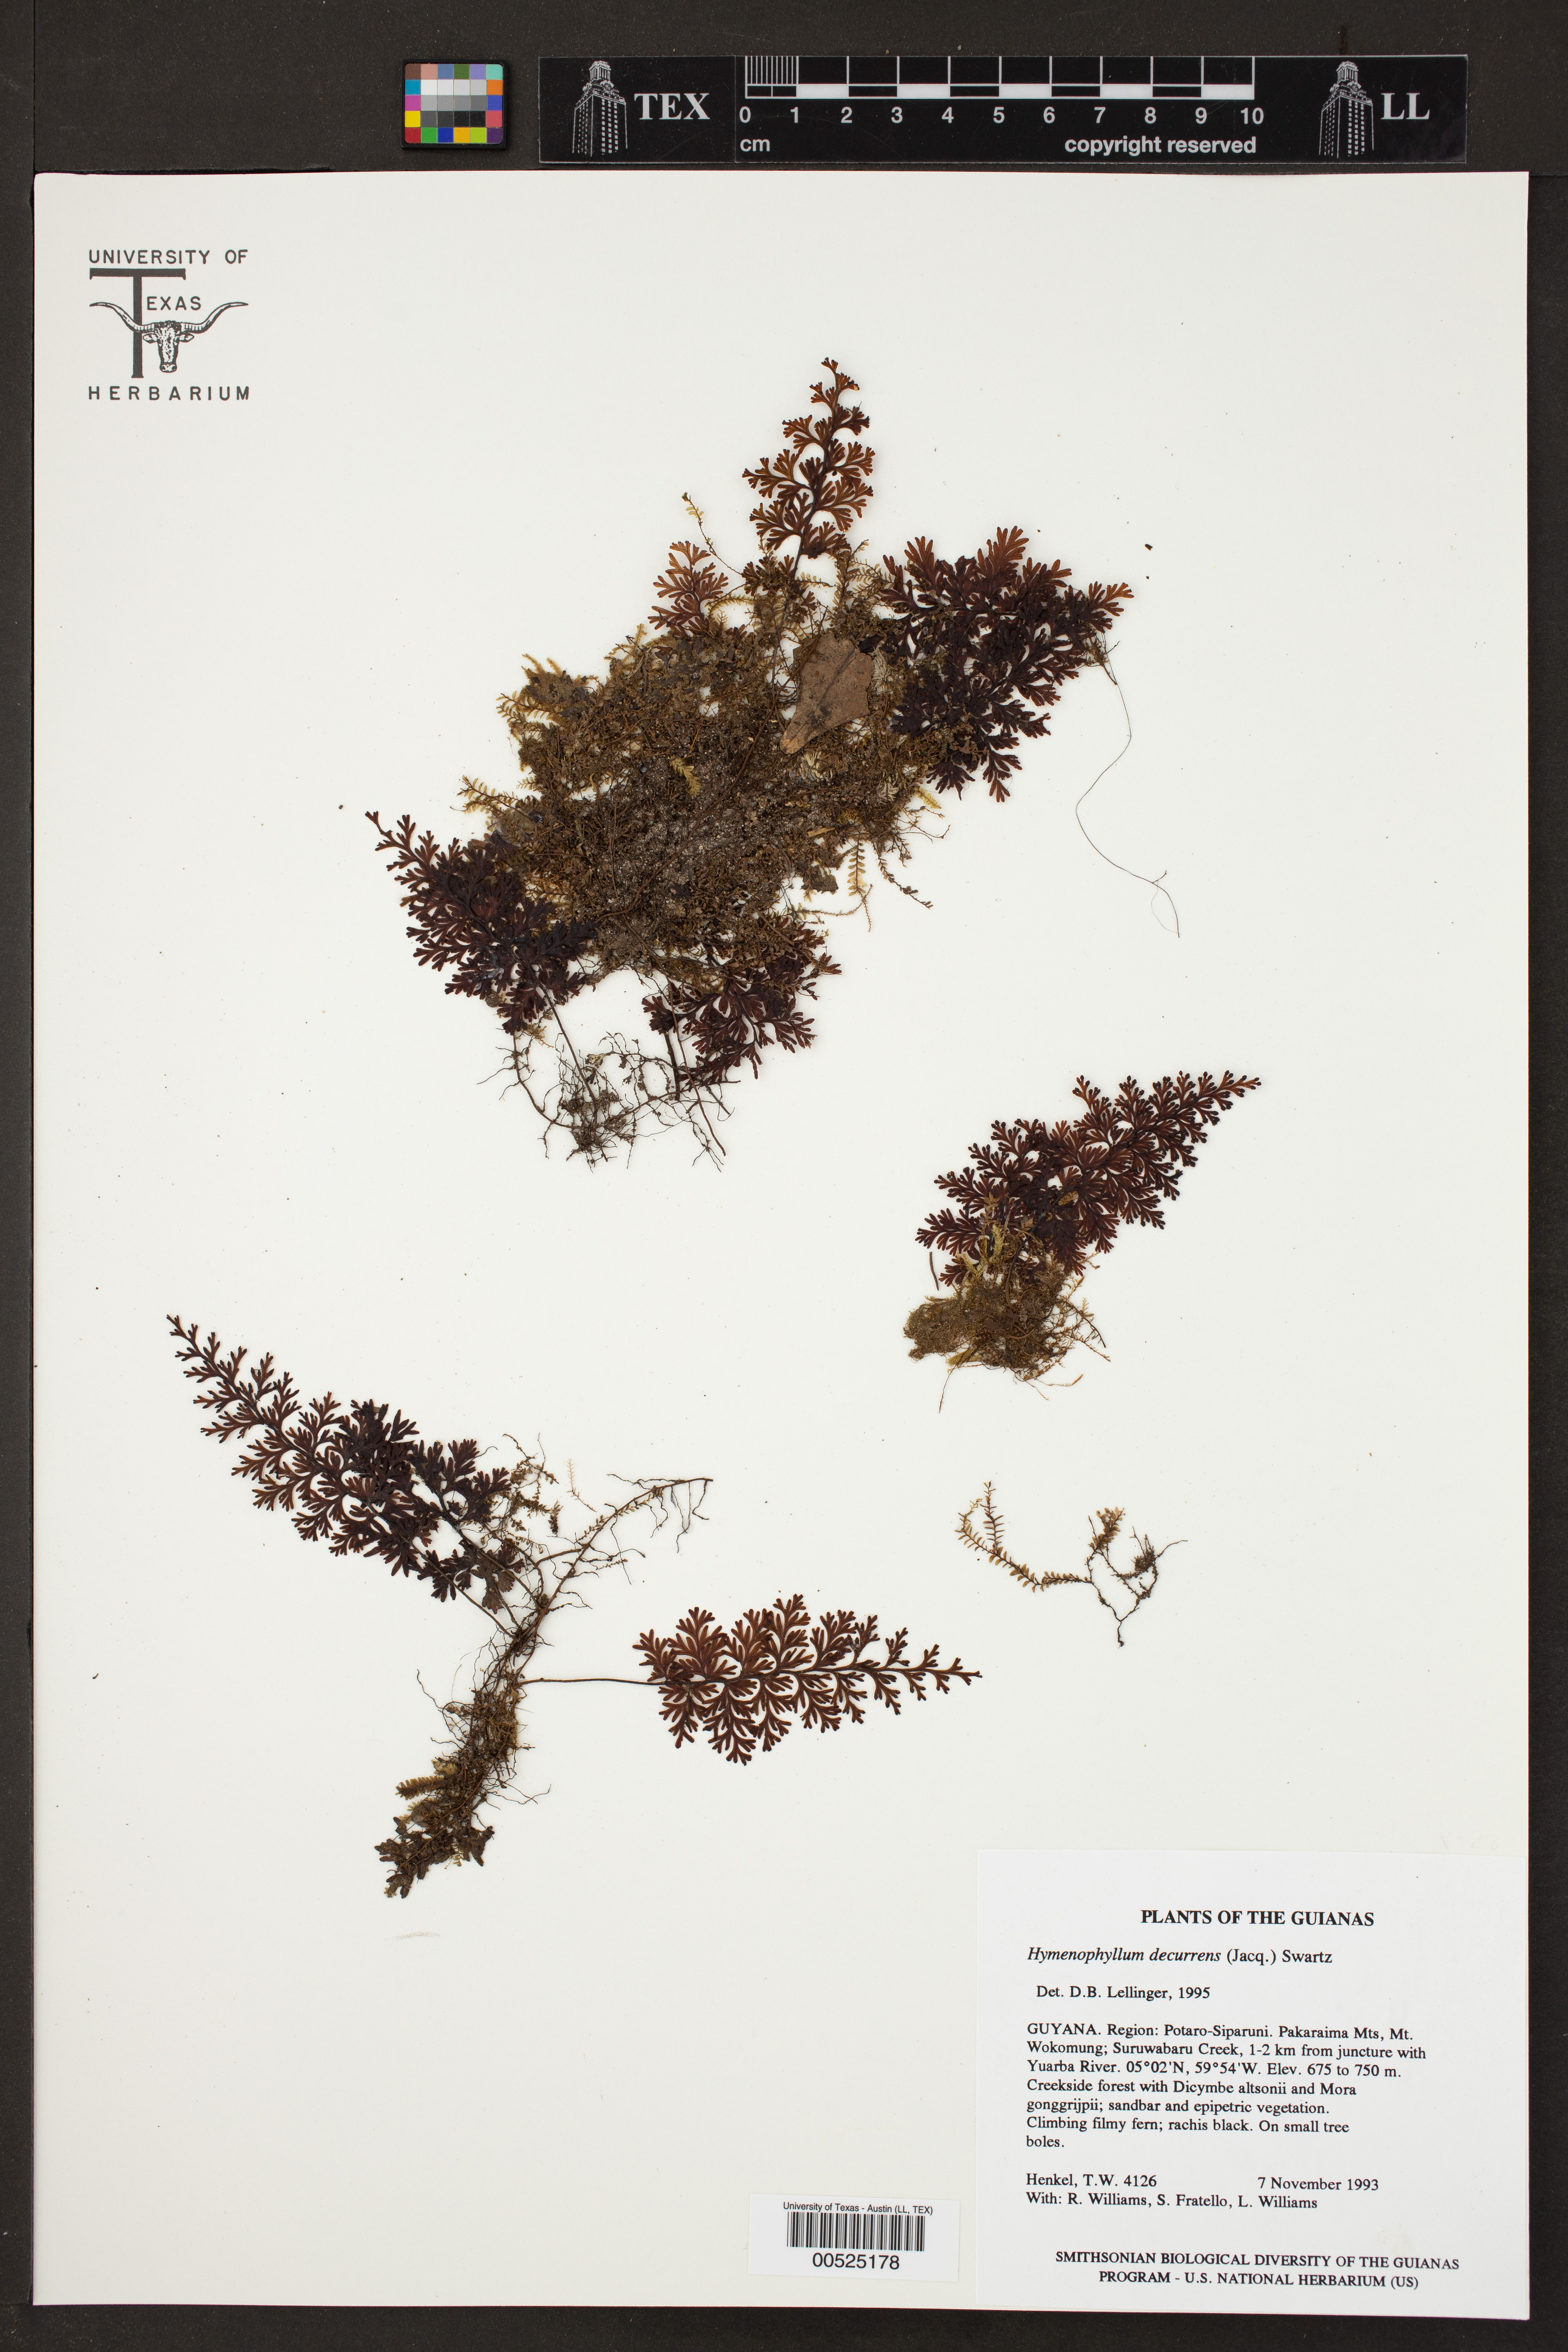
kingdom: Plantae
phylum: Tracheophyta
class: Polypodiopsida
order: Hymenophyllales
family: Hymenophyllaceae
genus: Hymenophyllum
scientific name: Hymenophyllum protrusum
